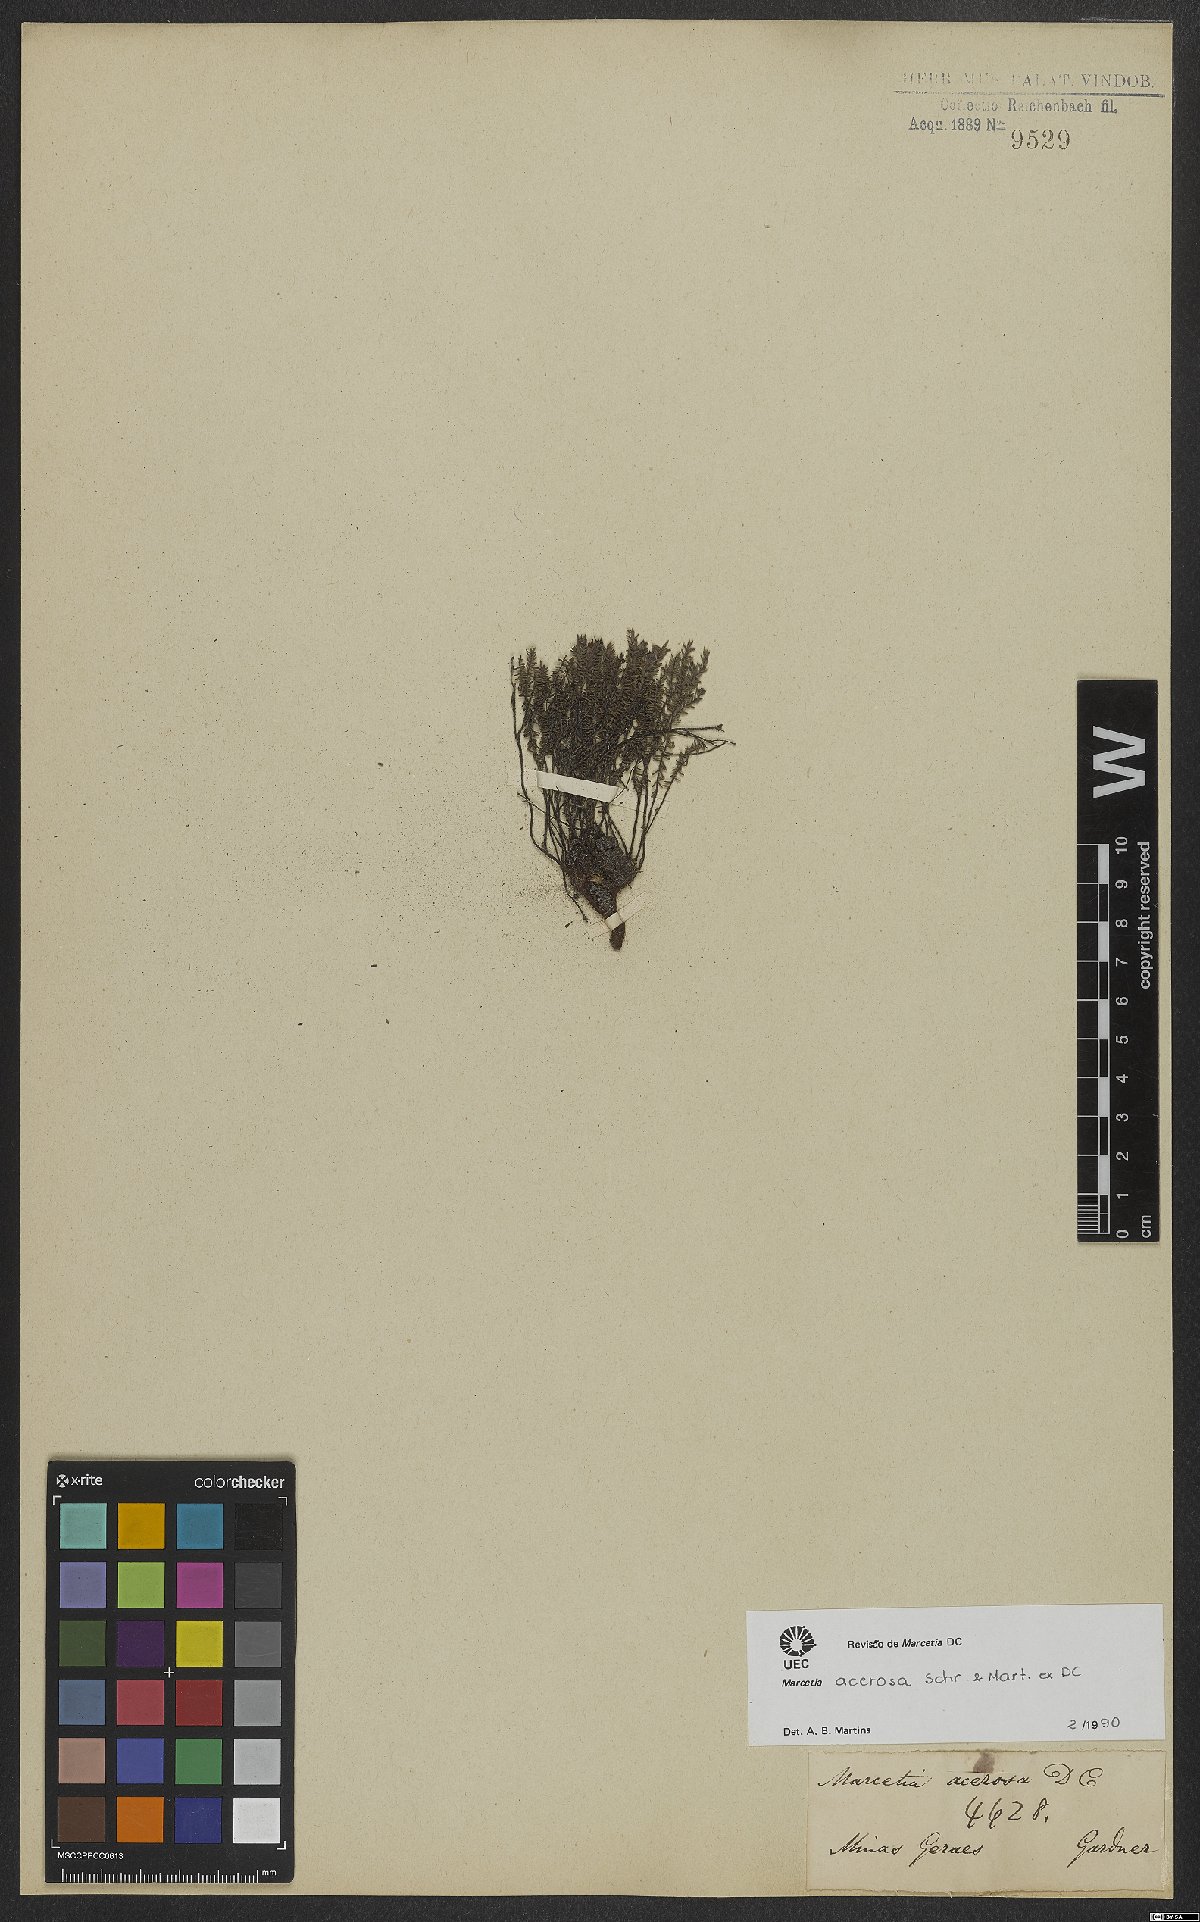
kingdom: Plantae
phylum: Tracheophyta
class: Magnoliopsida
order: Myrtales
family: Melastomataceae
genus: Marcetia
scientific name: Marcetia acerosa
